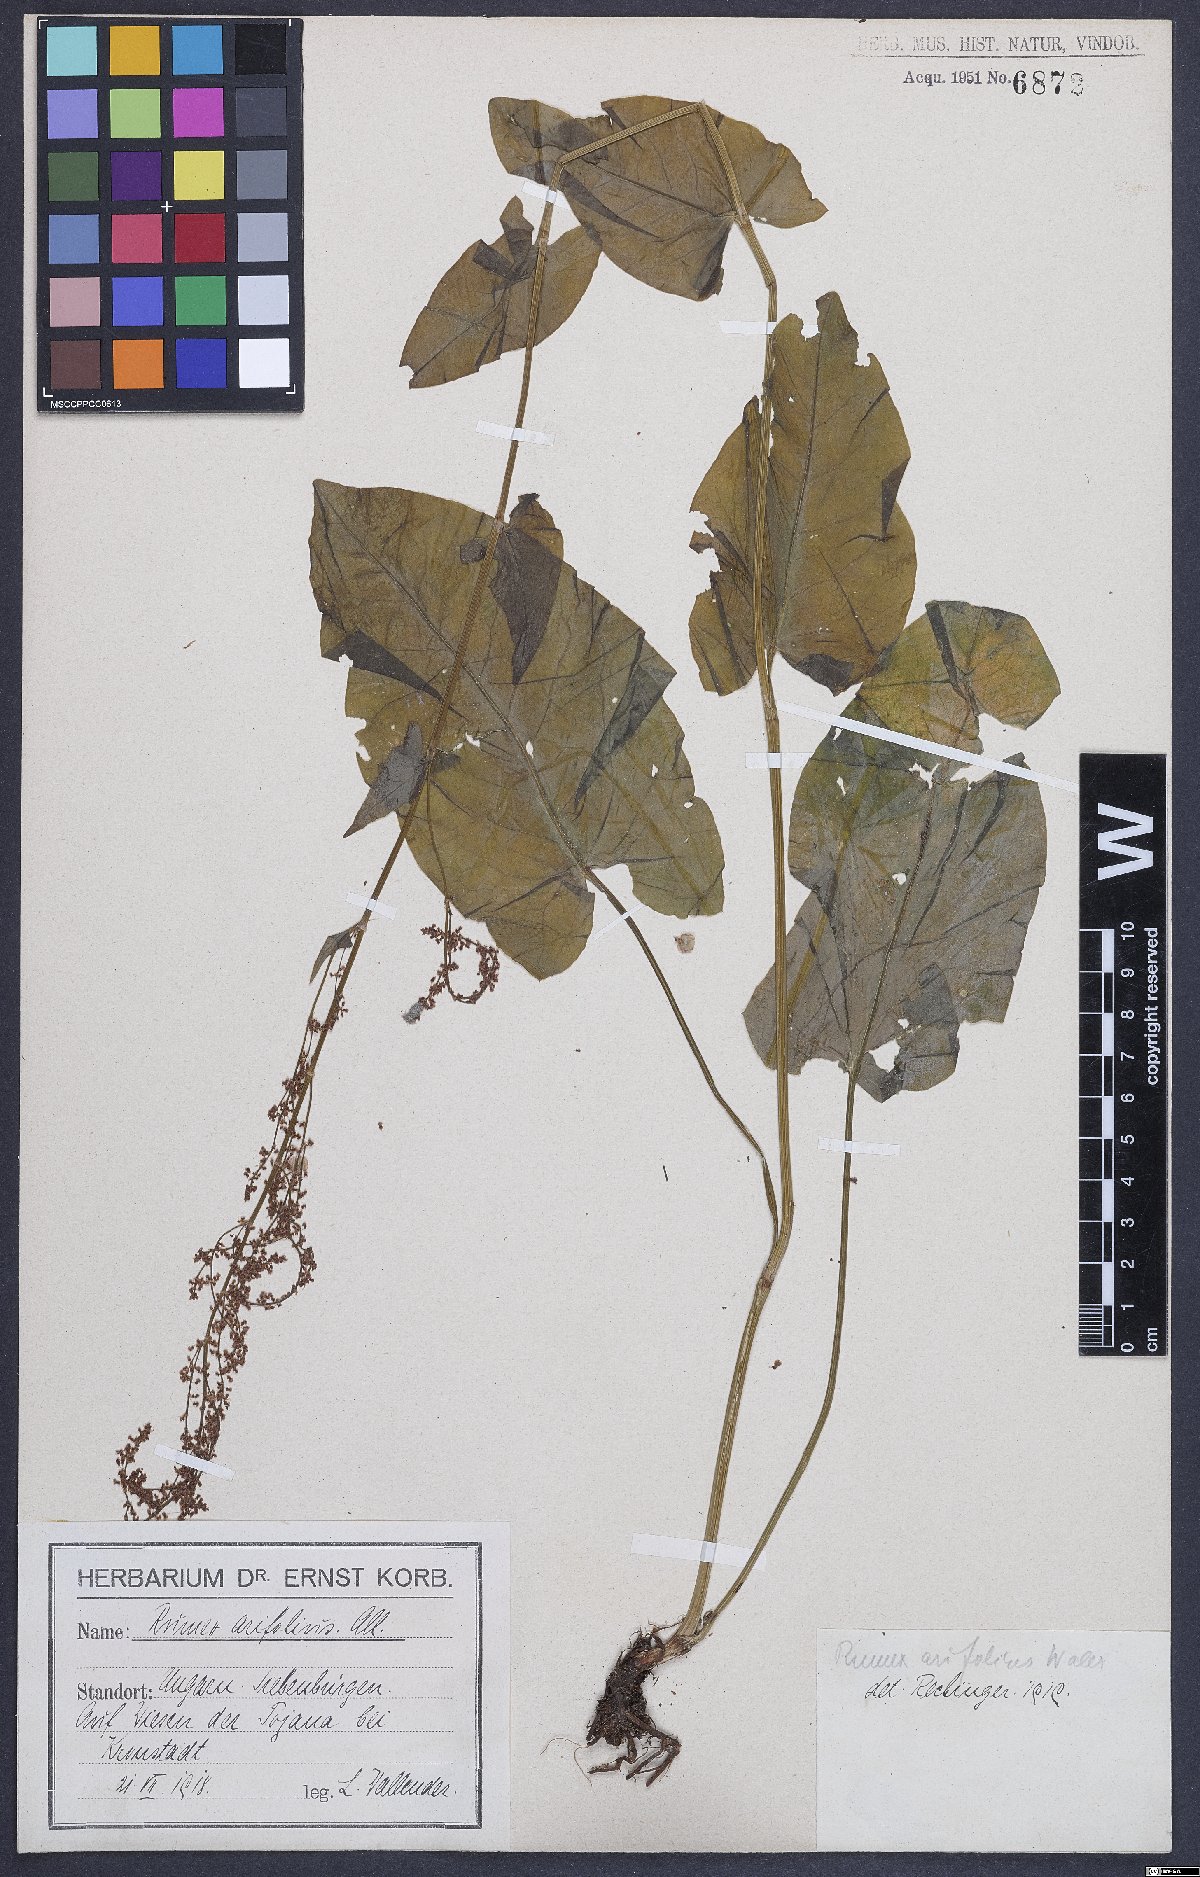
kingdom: Plantae
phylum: Tracheophyta
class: Magnoliopsida
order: Caryophyllales
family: Polygonaceae
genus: Rumex
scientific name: Rumex arifolius
